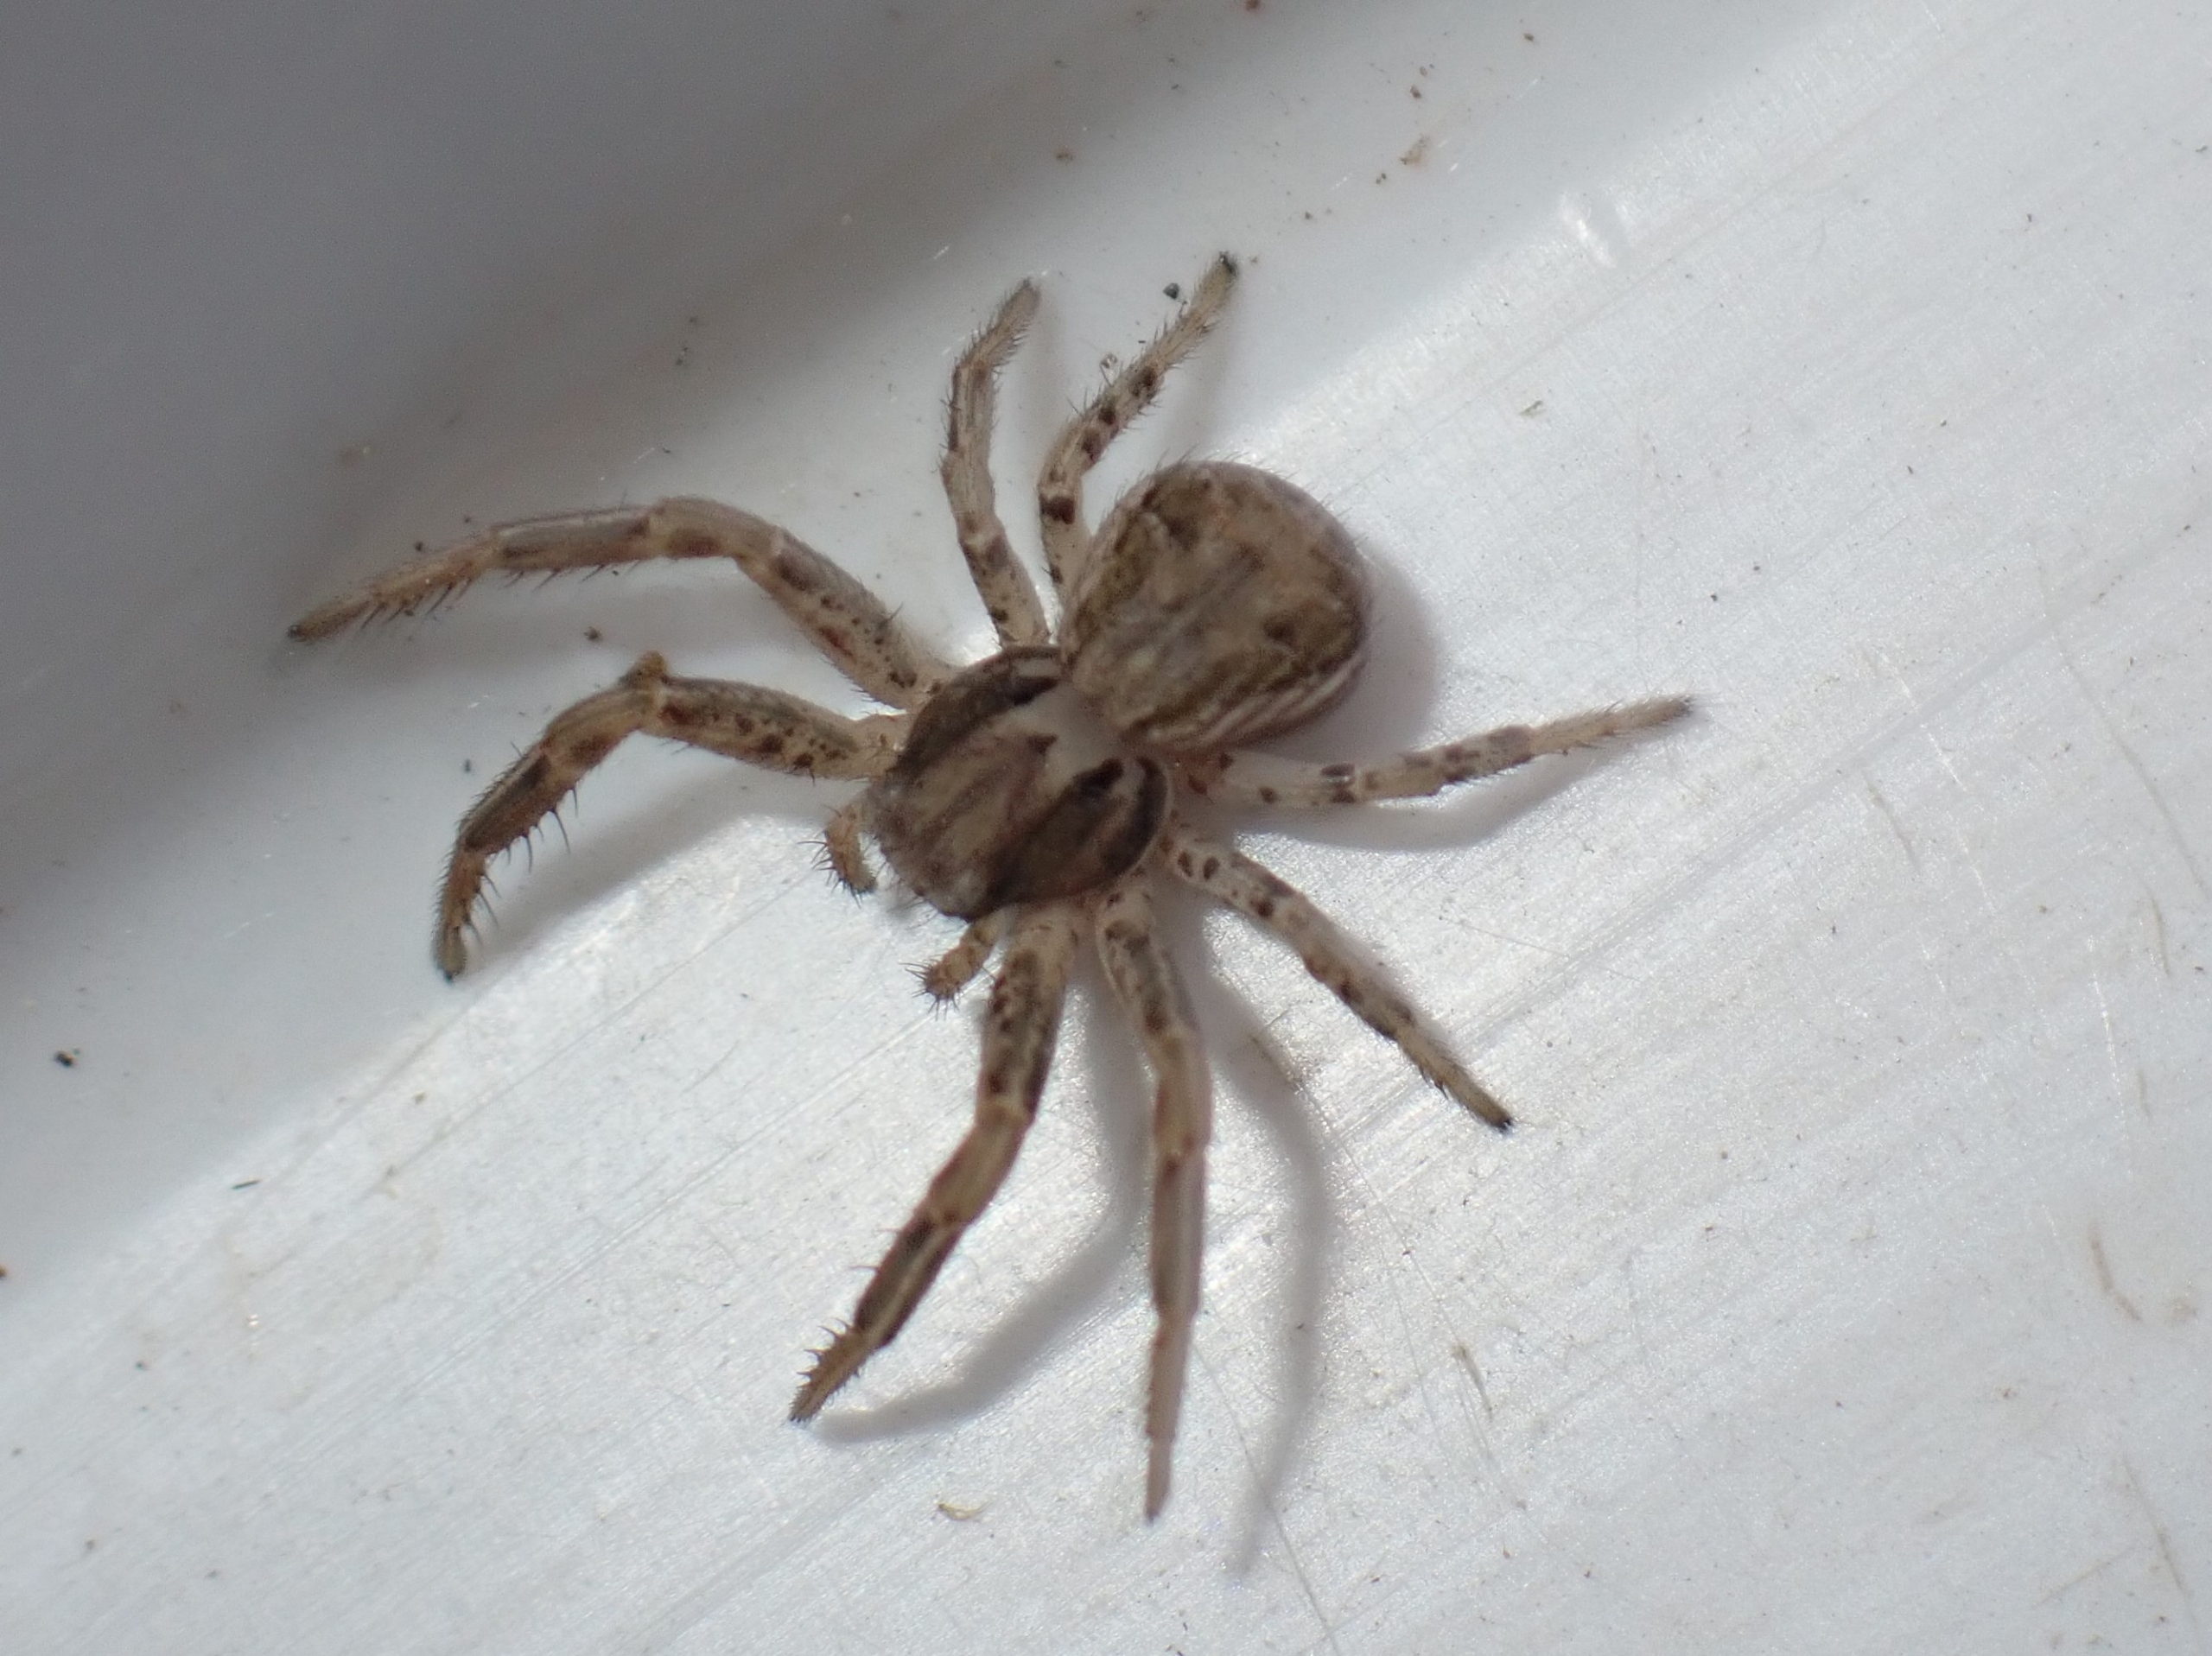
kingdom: Animalia
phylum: Arthropoda
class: Arachnida
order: Araneae
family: Thomisidae
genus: Xysticus
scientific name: Xysticus
